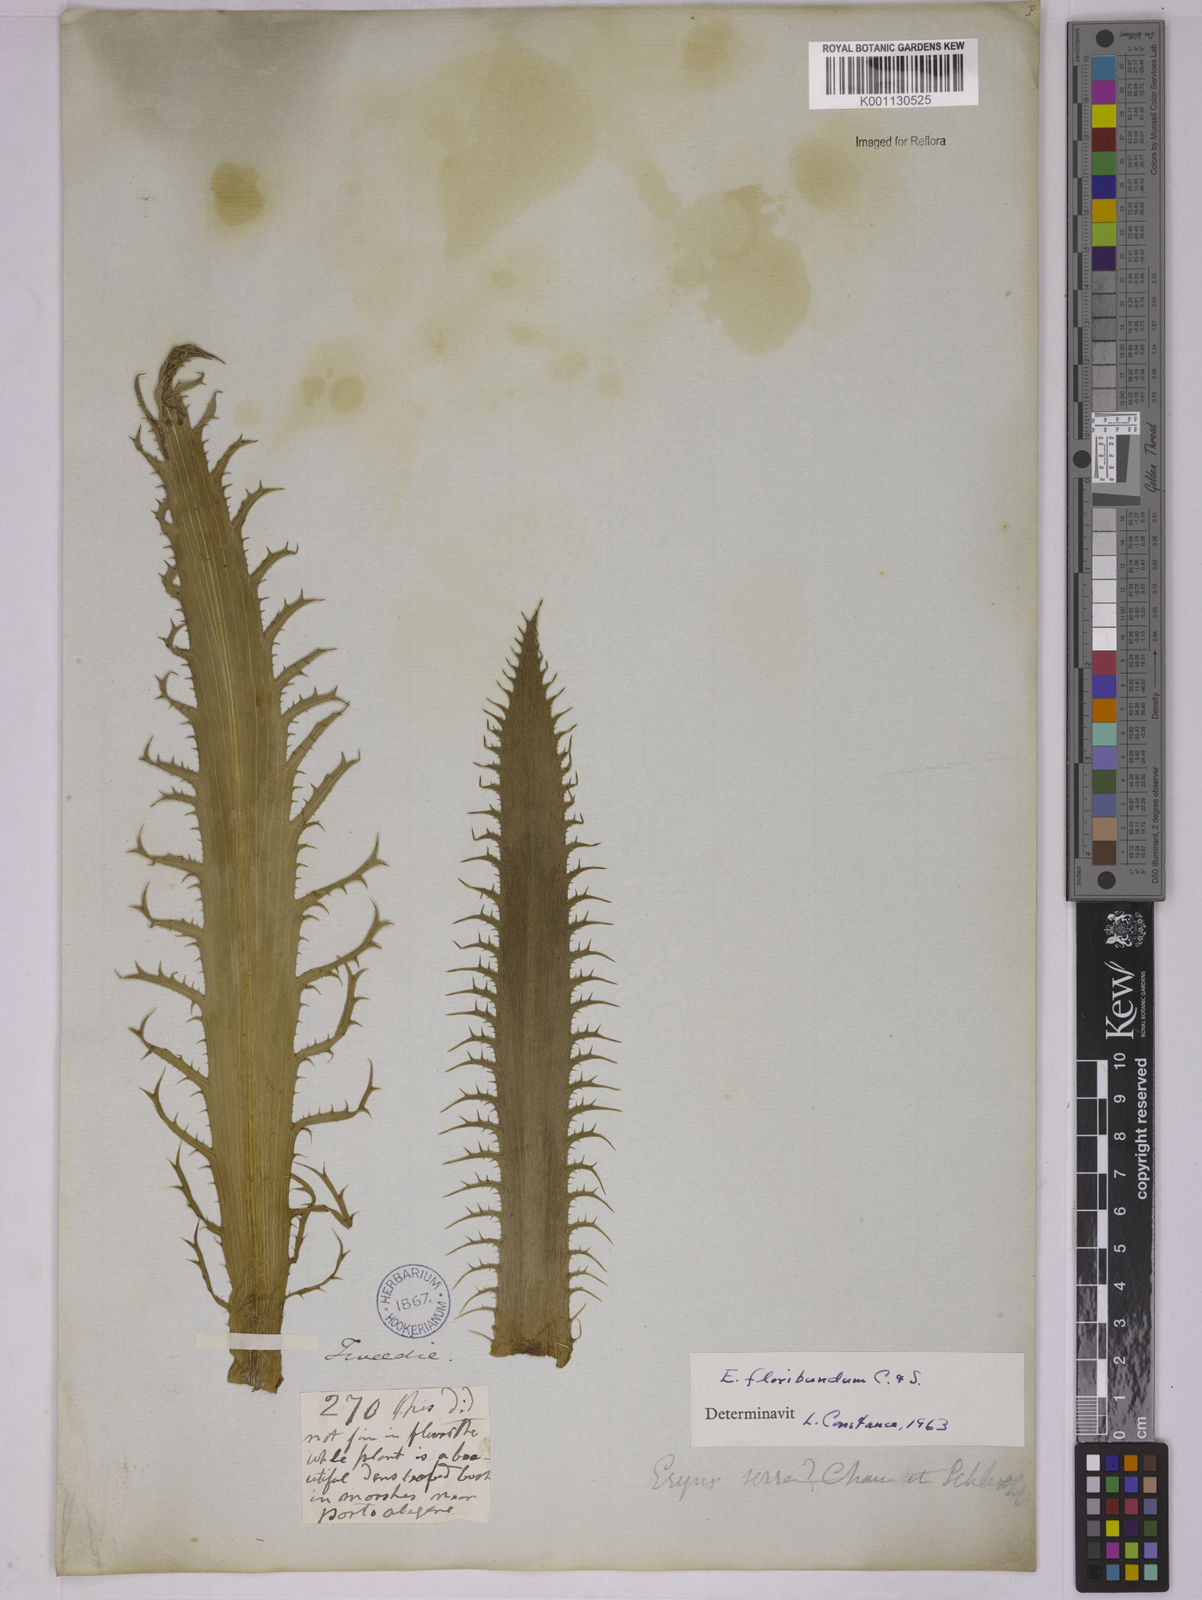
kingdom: Plantae
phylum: Tracheophyta
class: Magnoliopsida
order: Apiales
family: Apiaceae
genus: Eryngium
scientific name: Eryngium floribundum
